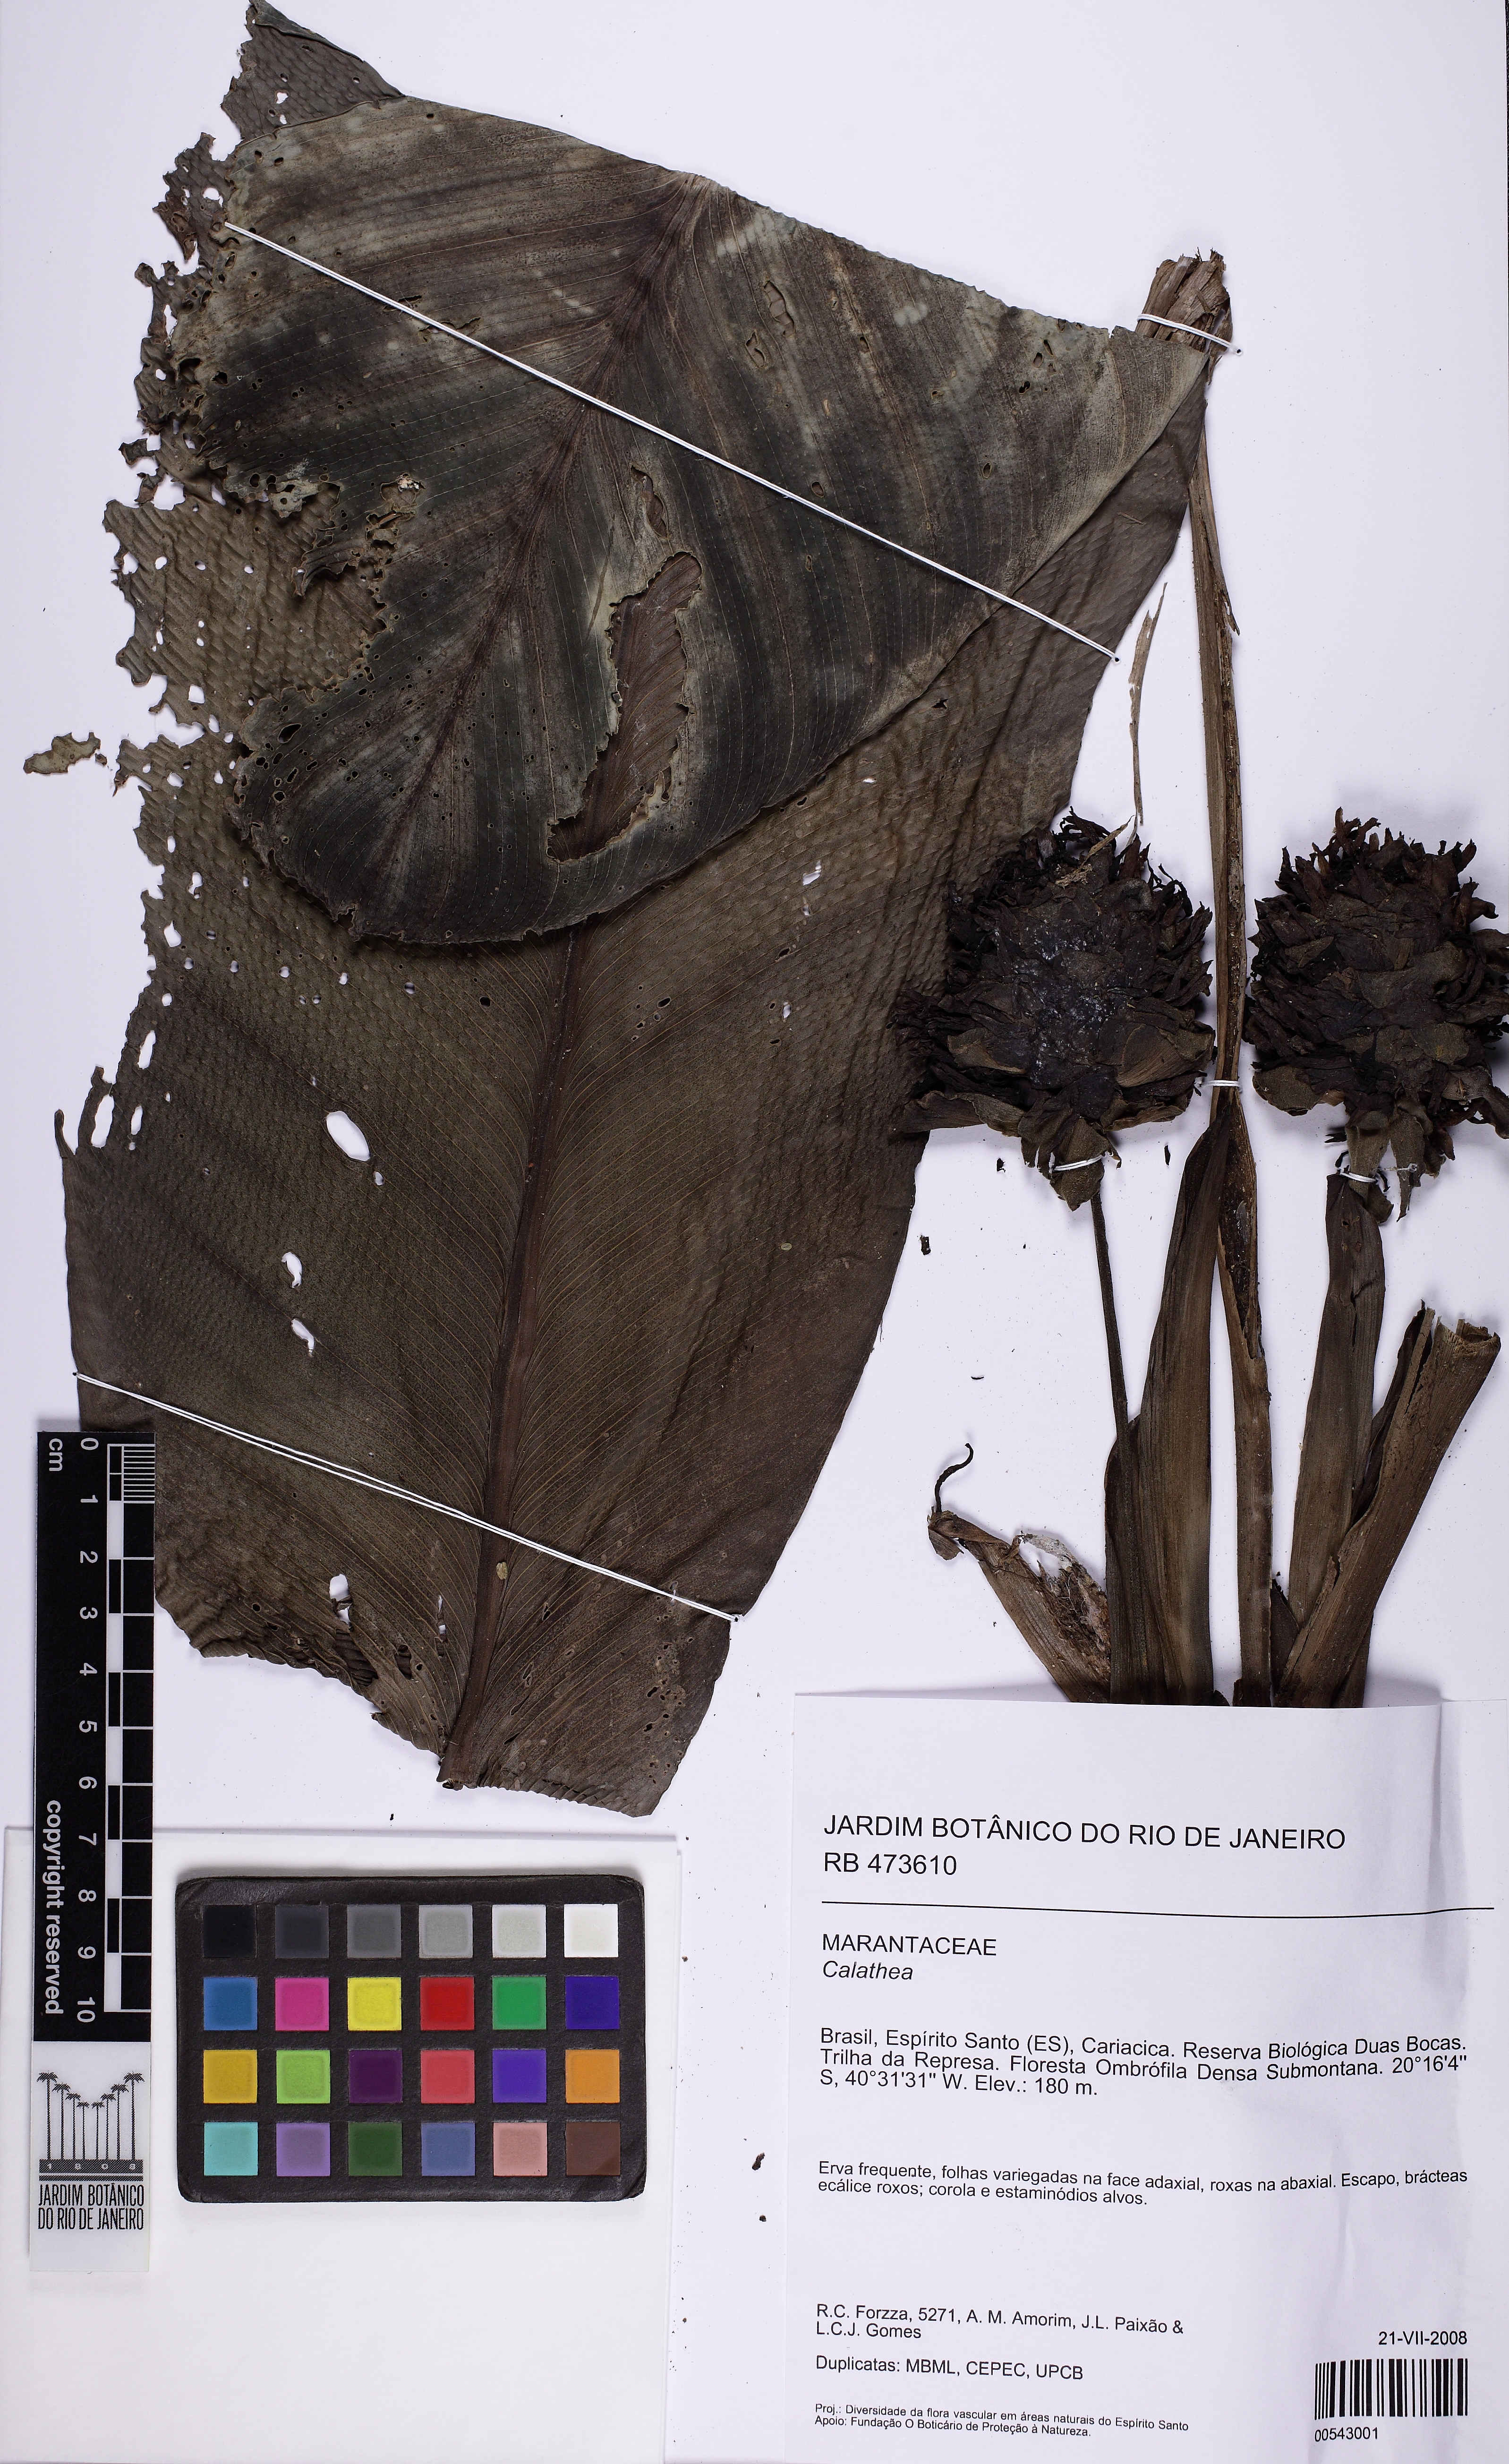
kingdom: Plantae
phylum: Tracheophyta
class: Liliopsida
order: Zingiberales
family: Marantaceae
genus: Goeppertia
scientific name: Goeppertia zebrina
